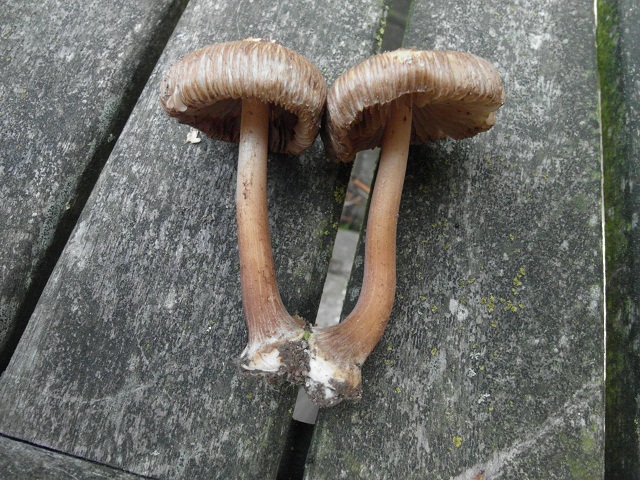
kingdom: Fungi
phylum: Basidiomycota
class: Agaricomycetes
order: Agaricales
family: Inocybaceae
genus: Inocybe
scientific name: Inocybe asterospora
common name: stjernesporet trævlhat
